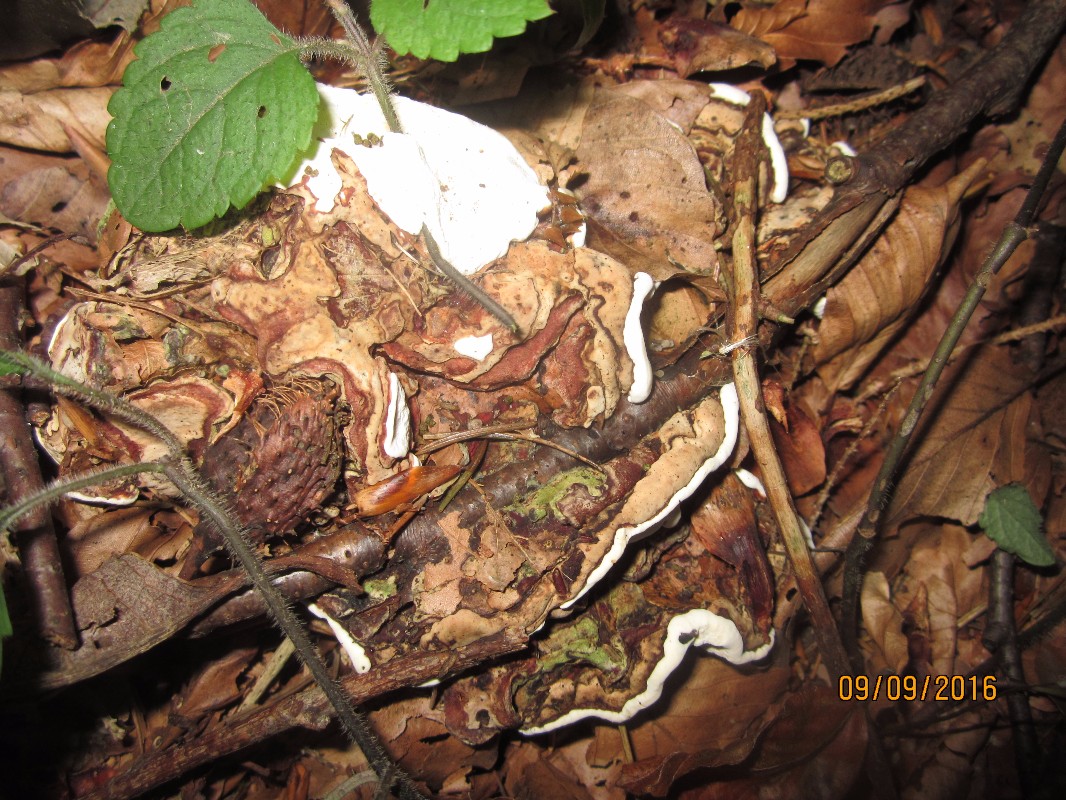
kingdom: Fungi
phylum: Basidiomycota
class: Agaricomycetes
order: Russulales
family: Bondarzewiaceae
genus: Heterobasidion
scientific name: Heterobasidion annosum
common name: almindelig rodfordærver
